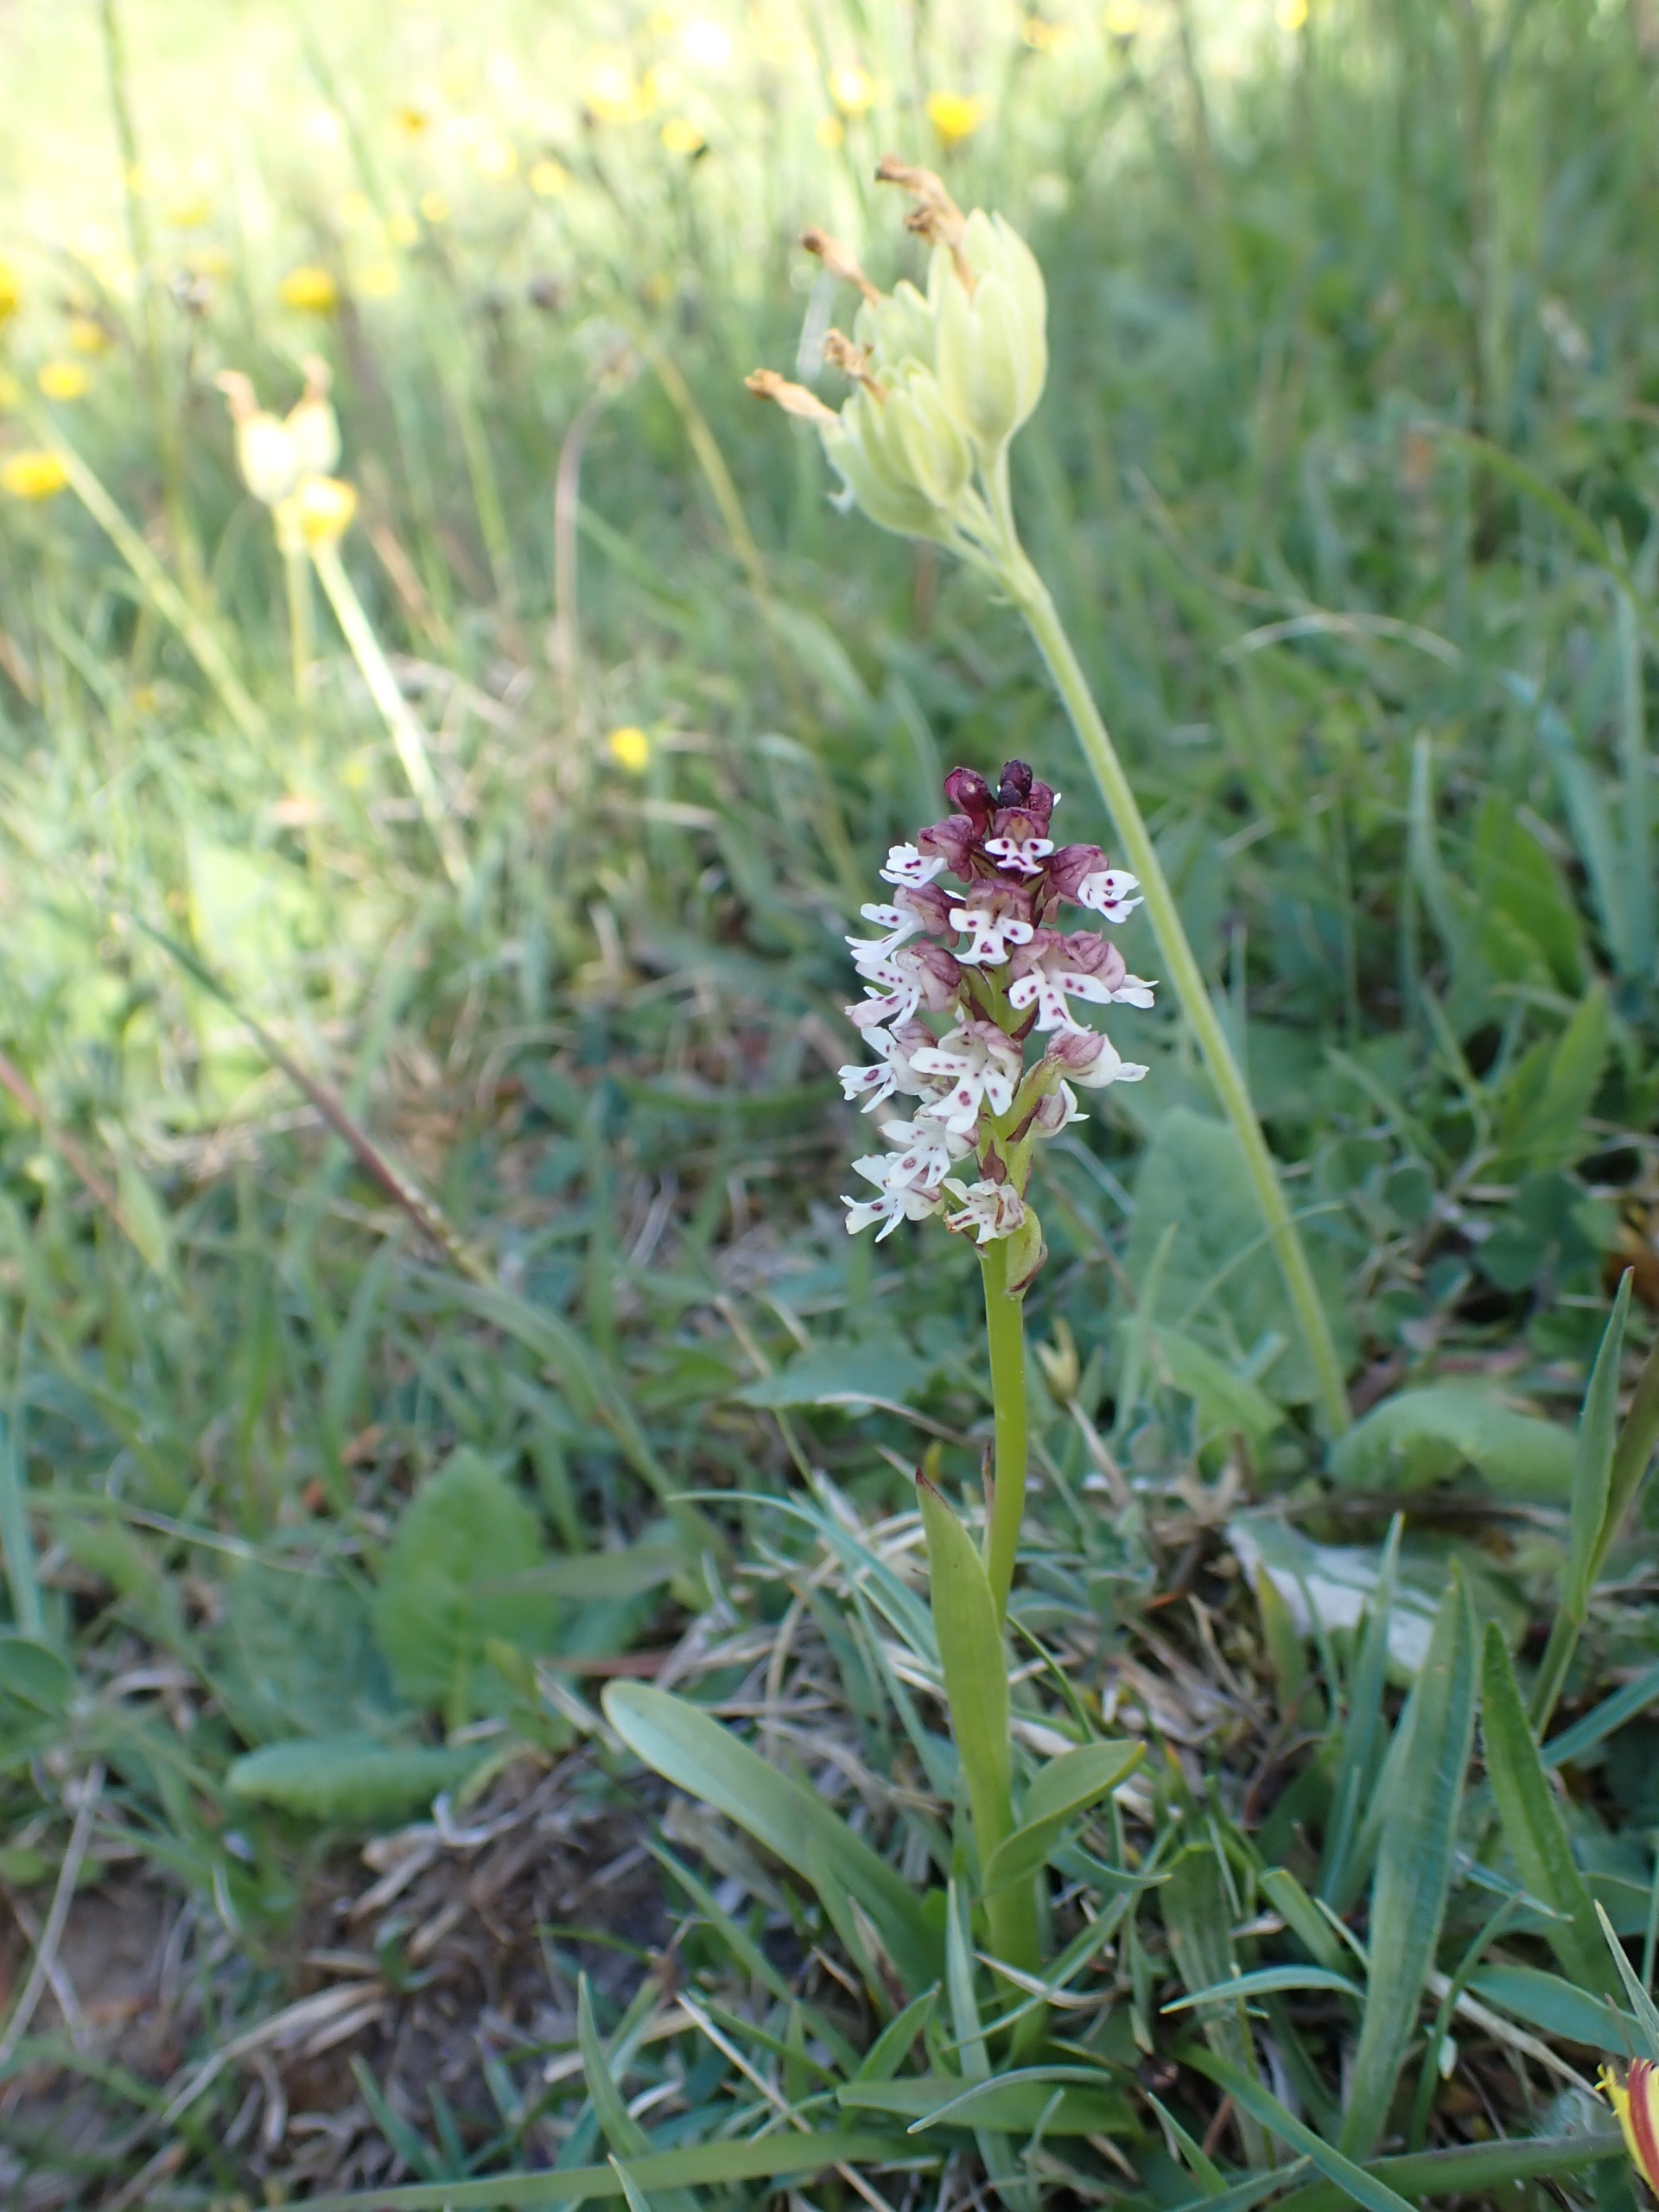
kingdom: Plantae
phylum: Tracheophyta
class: Liliopsida
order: Asparagales
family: Orchidaceae
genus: Neotinea
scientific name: Neotinea ustulata
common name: Bakkegøgeurt
